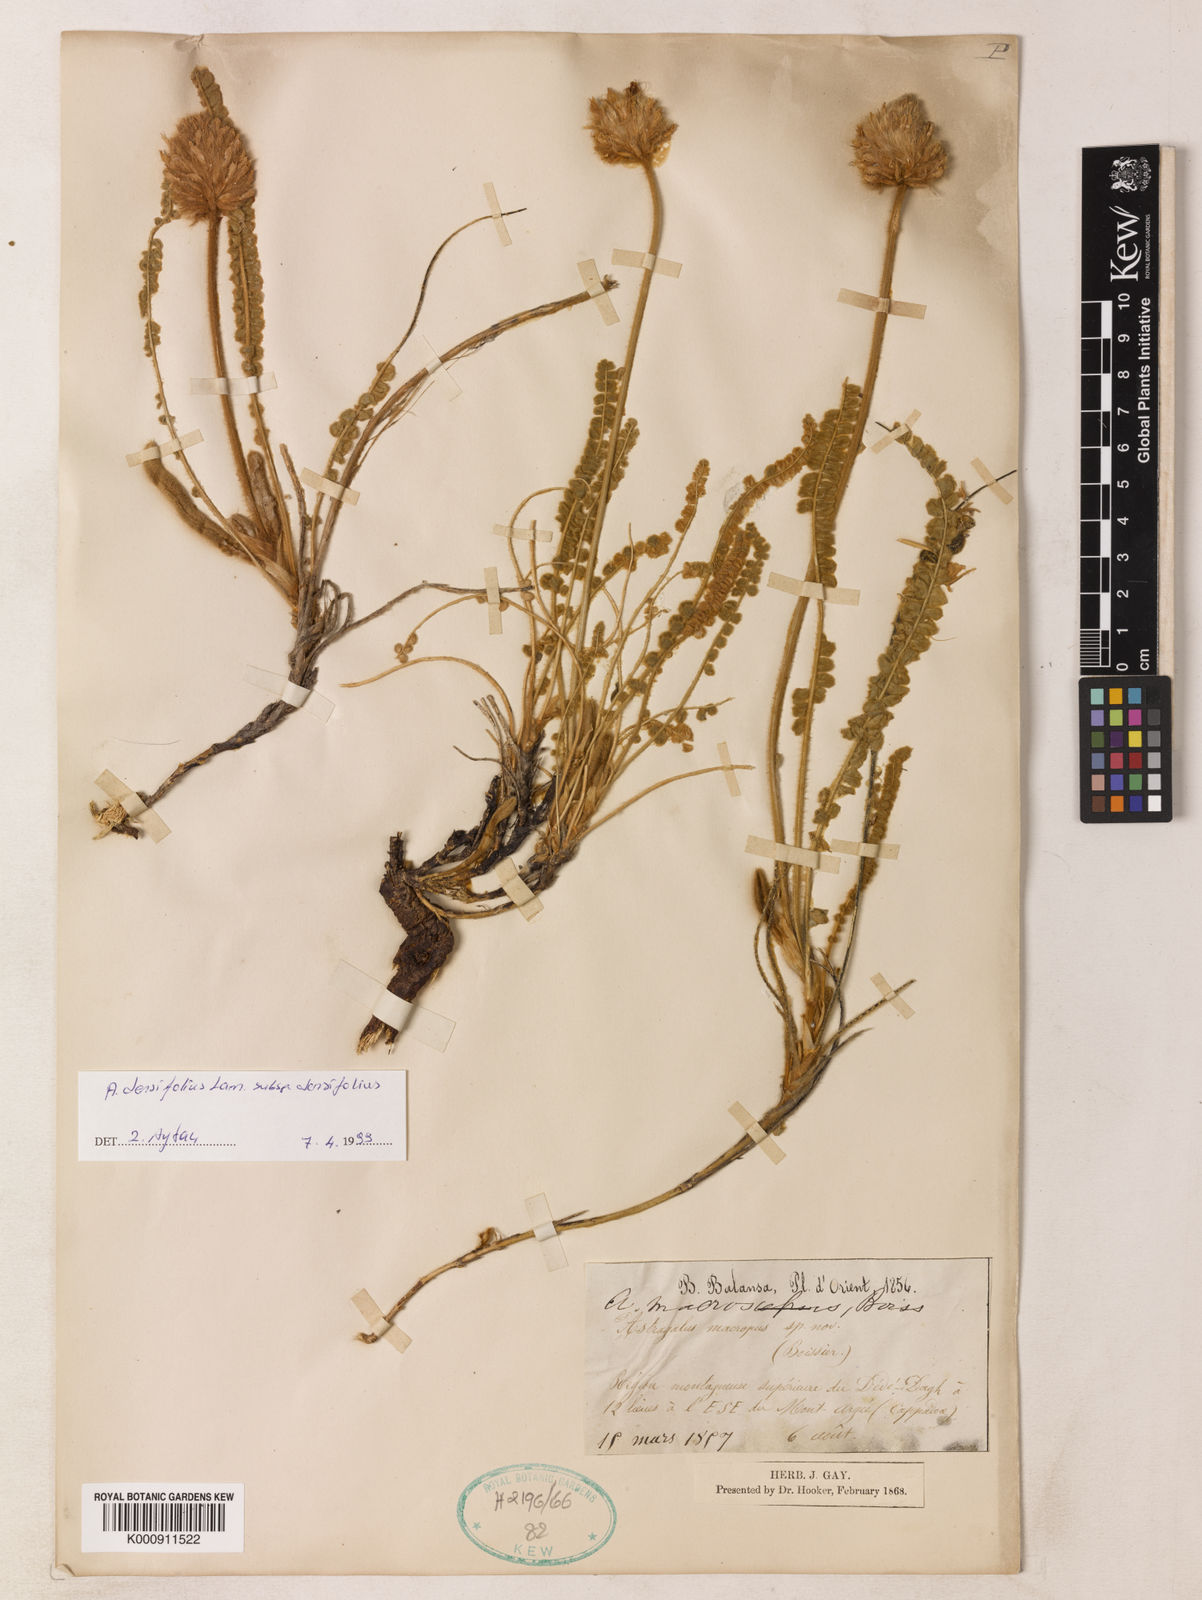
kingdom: Plantae
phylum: Tracheophyta
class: Magnoliopsida
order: Fabales
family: Fabaceae
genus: Astragalus
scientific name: Astragalus densifolius
